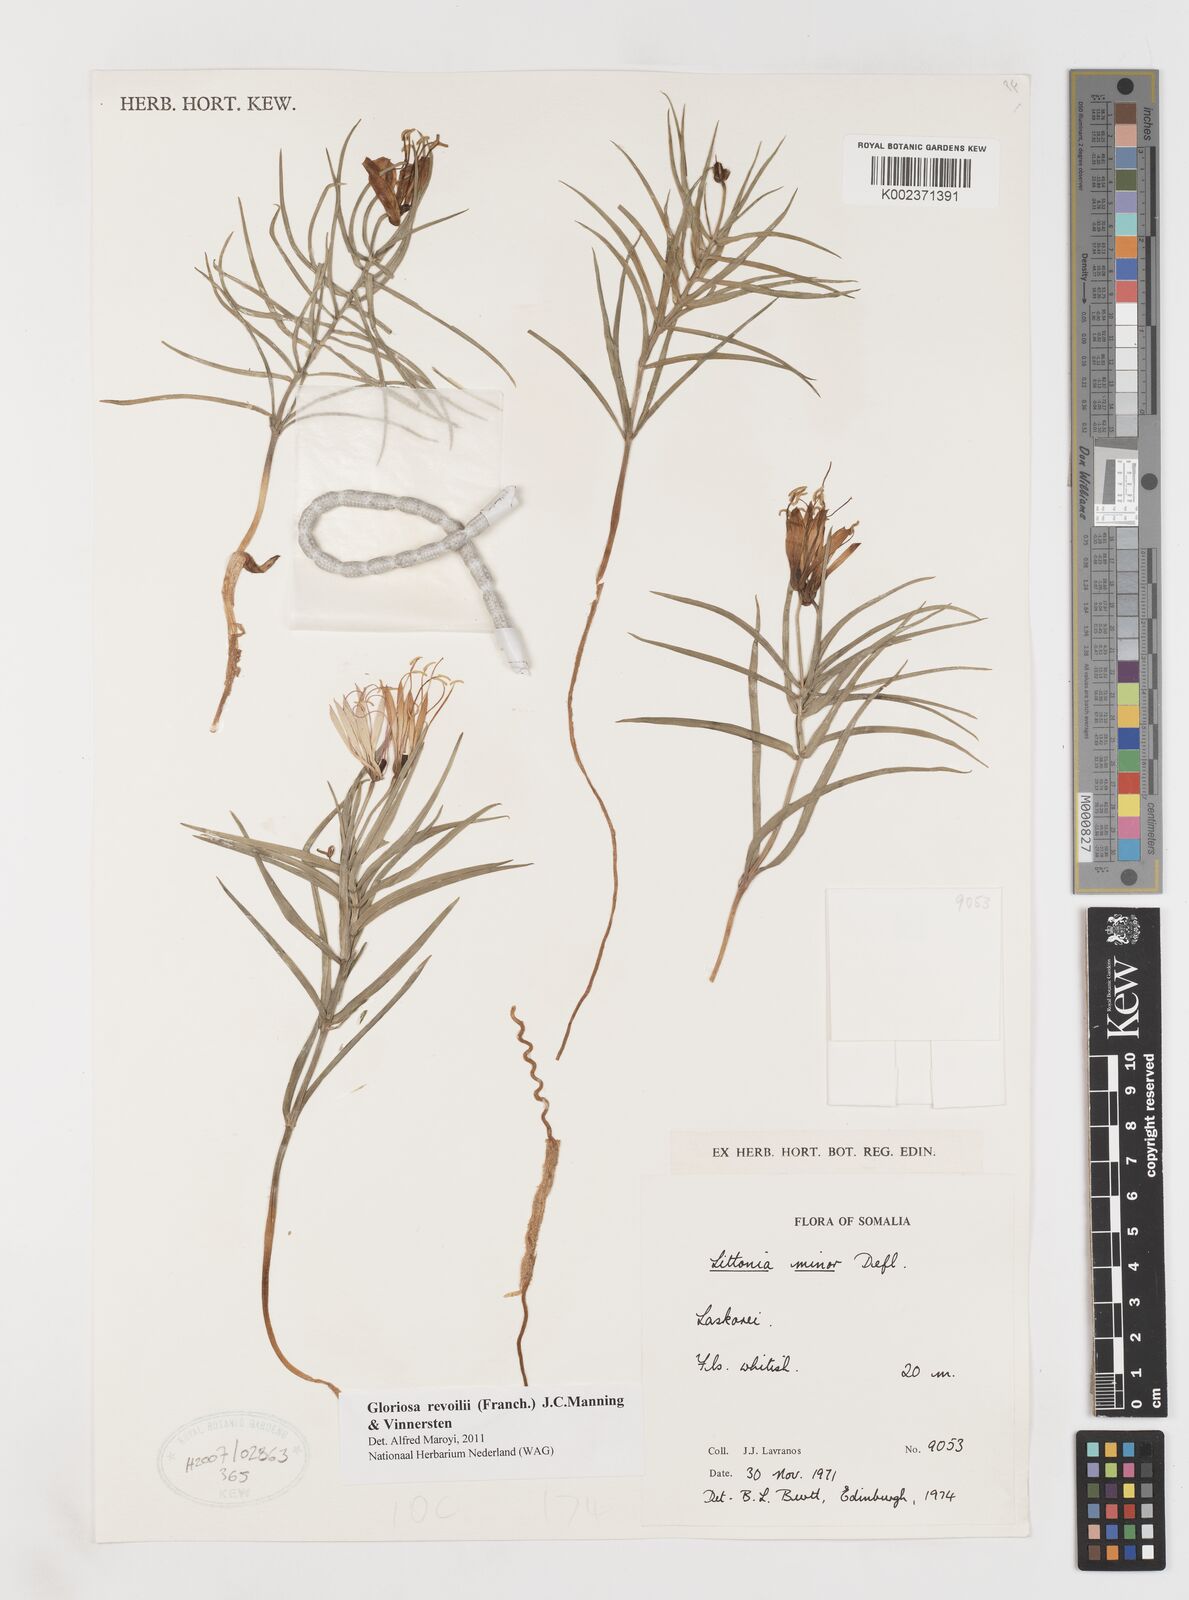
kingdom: Plantae
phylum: Tracheophyta
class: Liliopsida
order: Liliales
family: Colchicaceae
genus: Gloriosa
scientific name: Gloriosa revoilii
